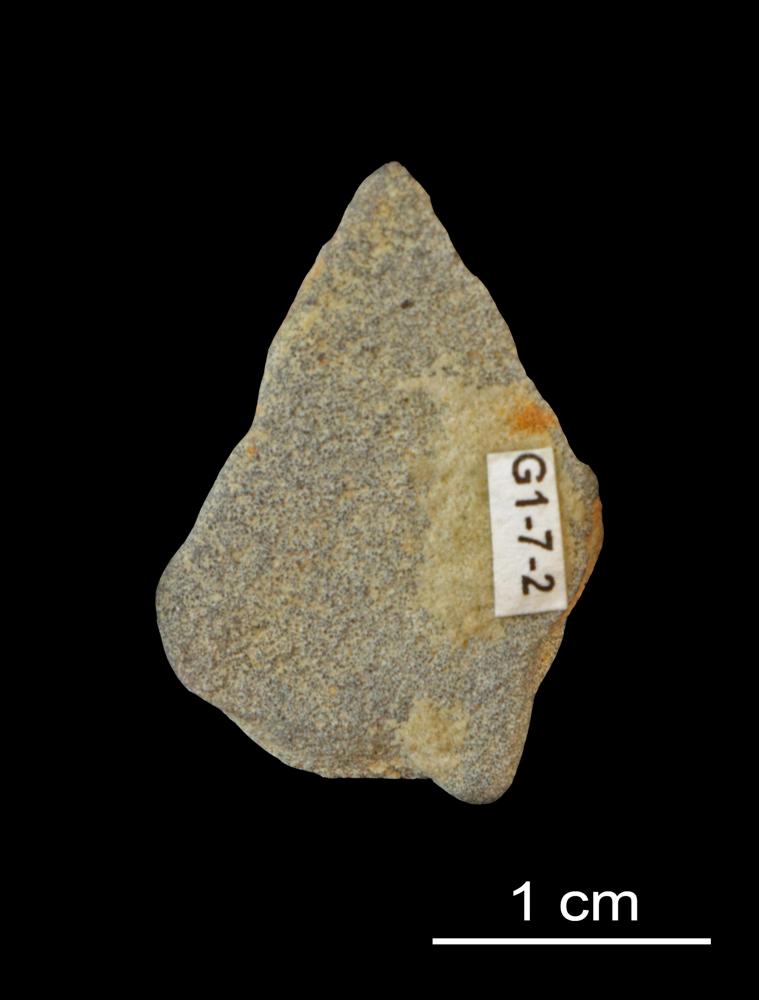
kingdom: Animalia
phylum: Brachiopoda
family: Paterinidae
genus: Mickwitzia
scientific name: Mickwitzia
